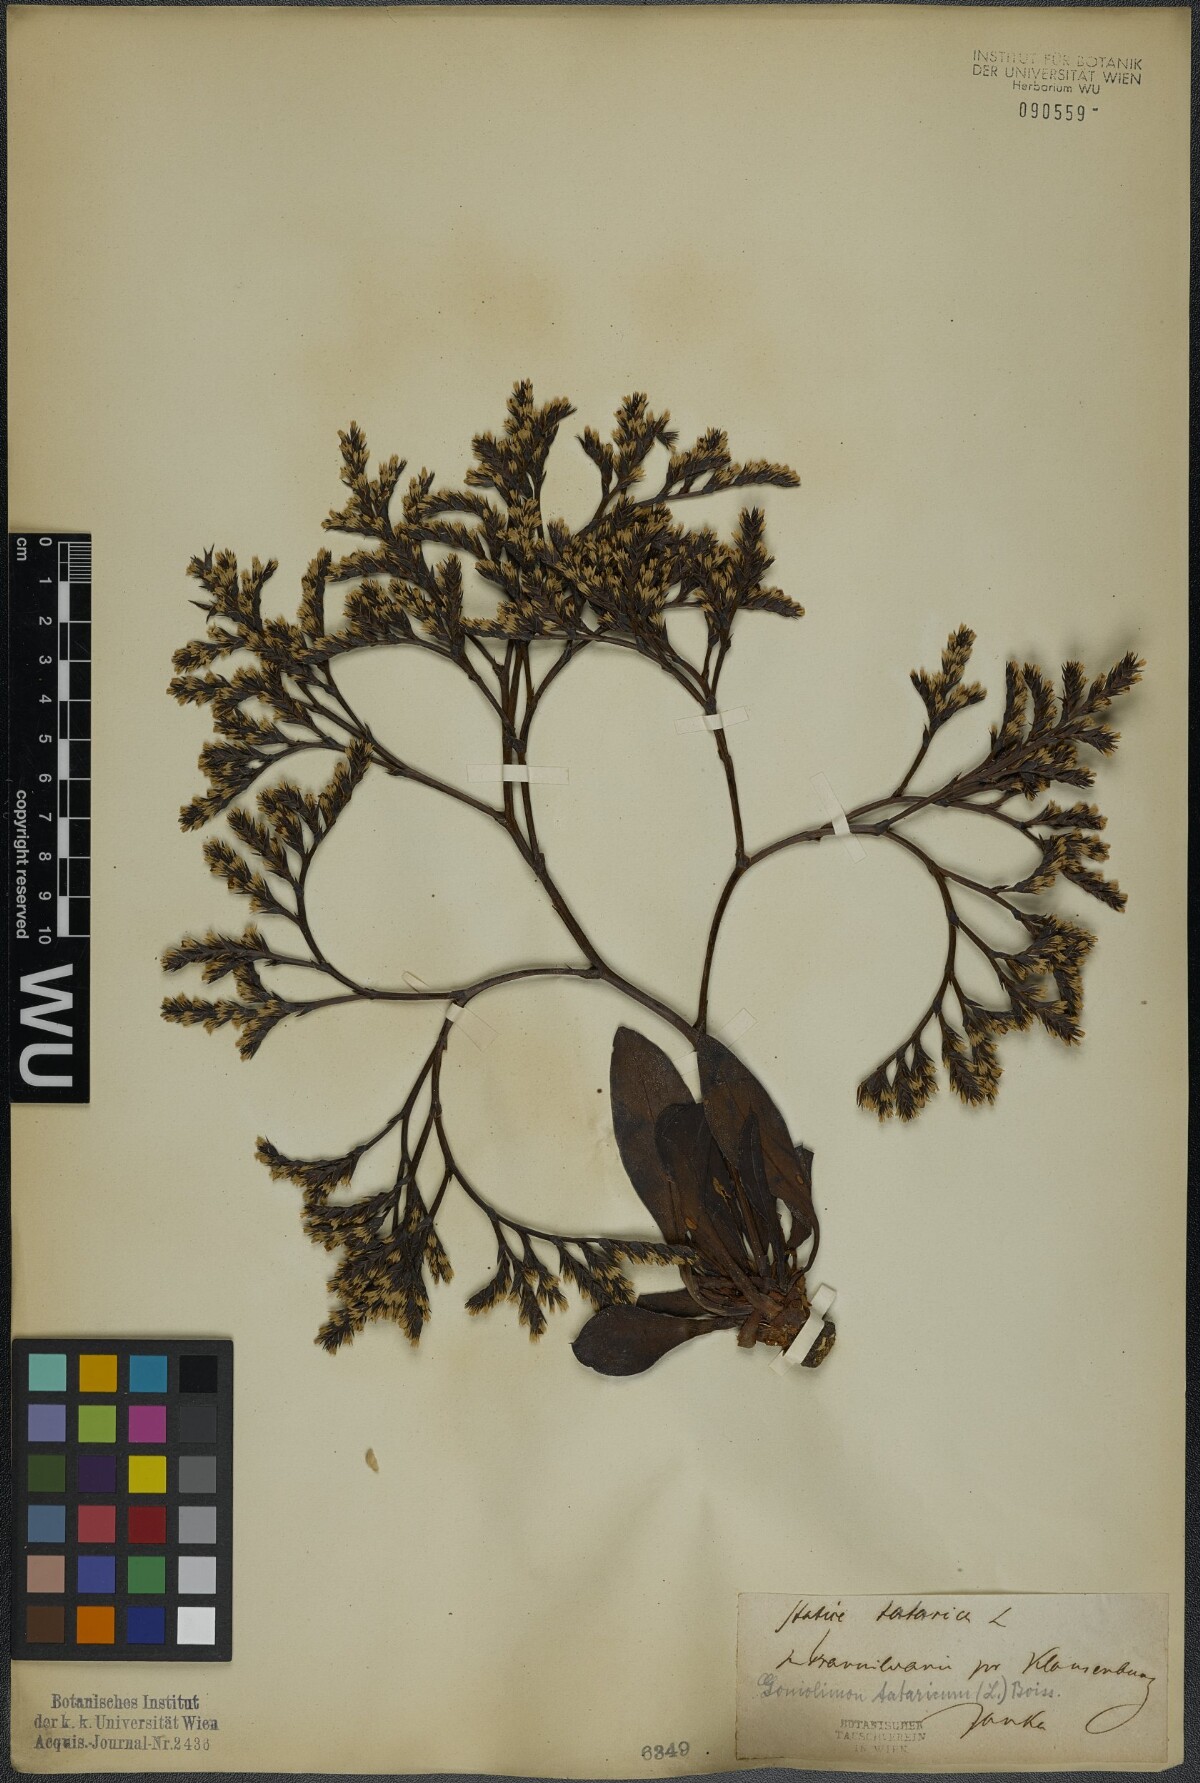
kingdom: Plantae
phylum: Tracheophyta
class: Magnoliopsida
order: Caryophyllales
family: Plumbaginaceae
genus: Goniolimon
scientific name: Goniolimon tataricum
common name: Statice
